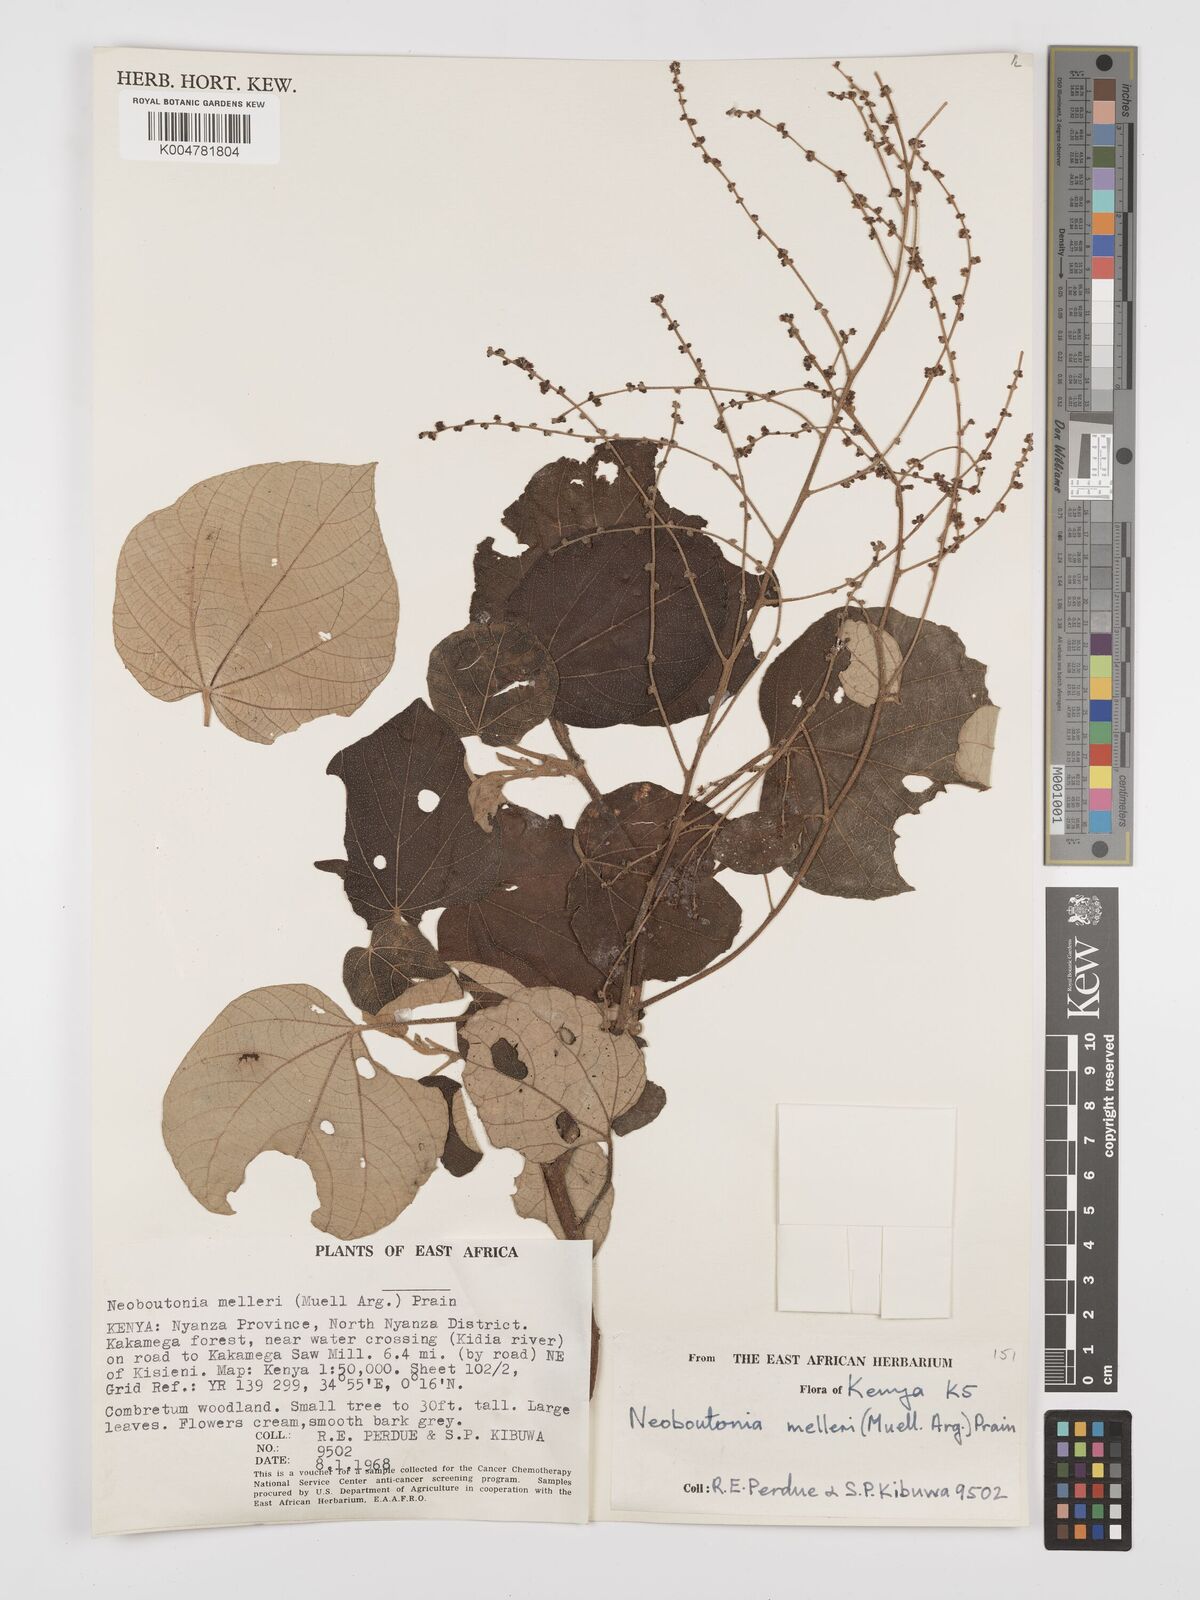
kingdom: Plantae
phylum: Tracheophyta
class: Magnoliopsida
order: Malpighiales
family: Euphorbiaceae
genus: Neoboutonia
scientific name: Neoboutonia melleri
